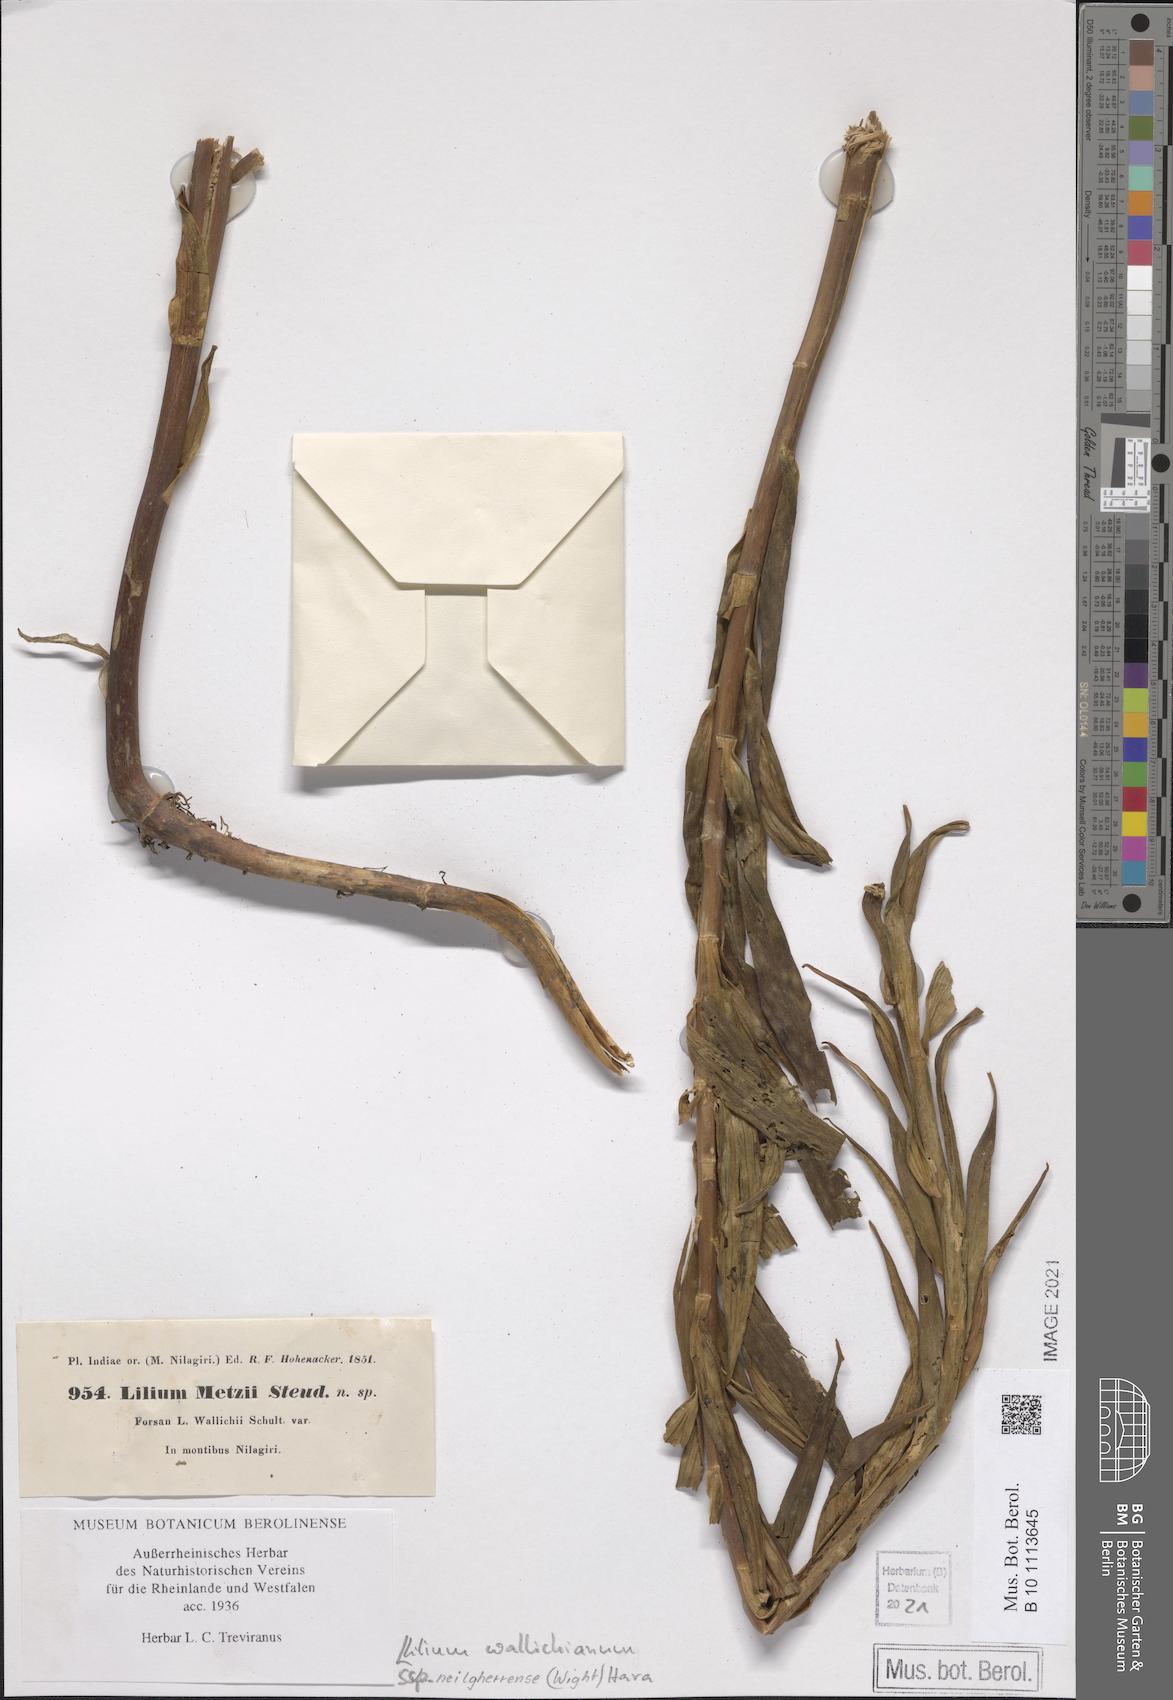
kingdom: Plantae
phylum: Tracheophyta
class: Liliopsida
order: Liliales
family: Liliaceae
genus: Lilium
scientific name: Lilium wallichianum
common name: Wallich's lily
